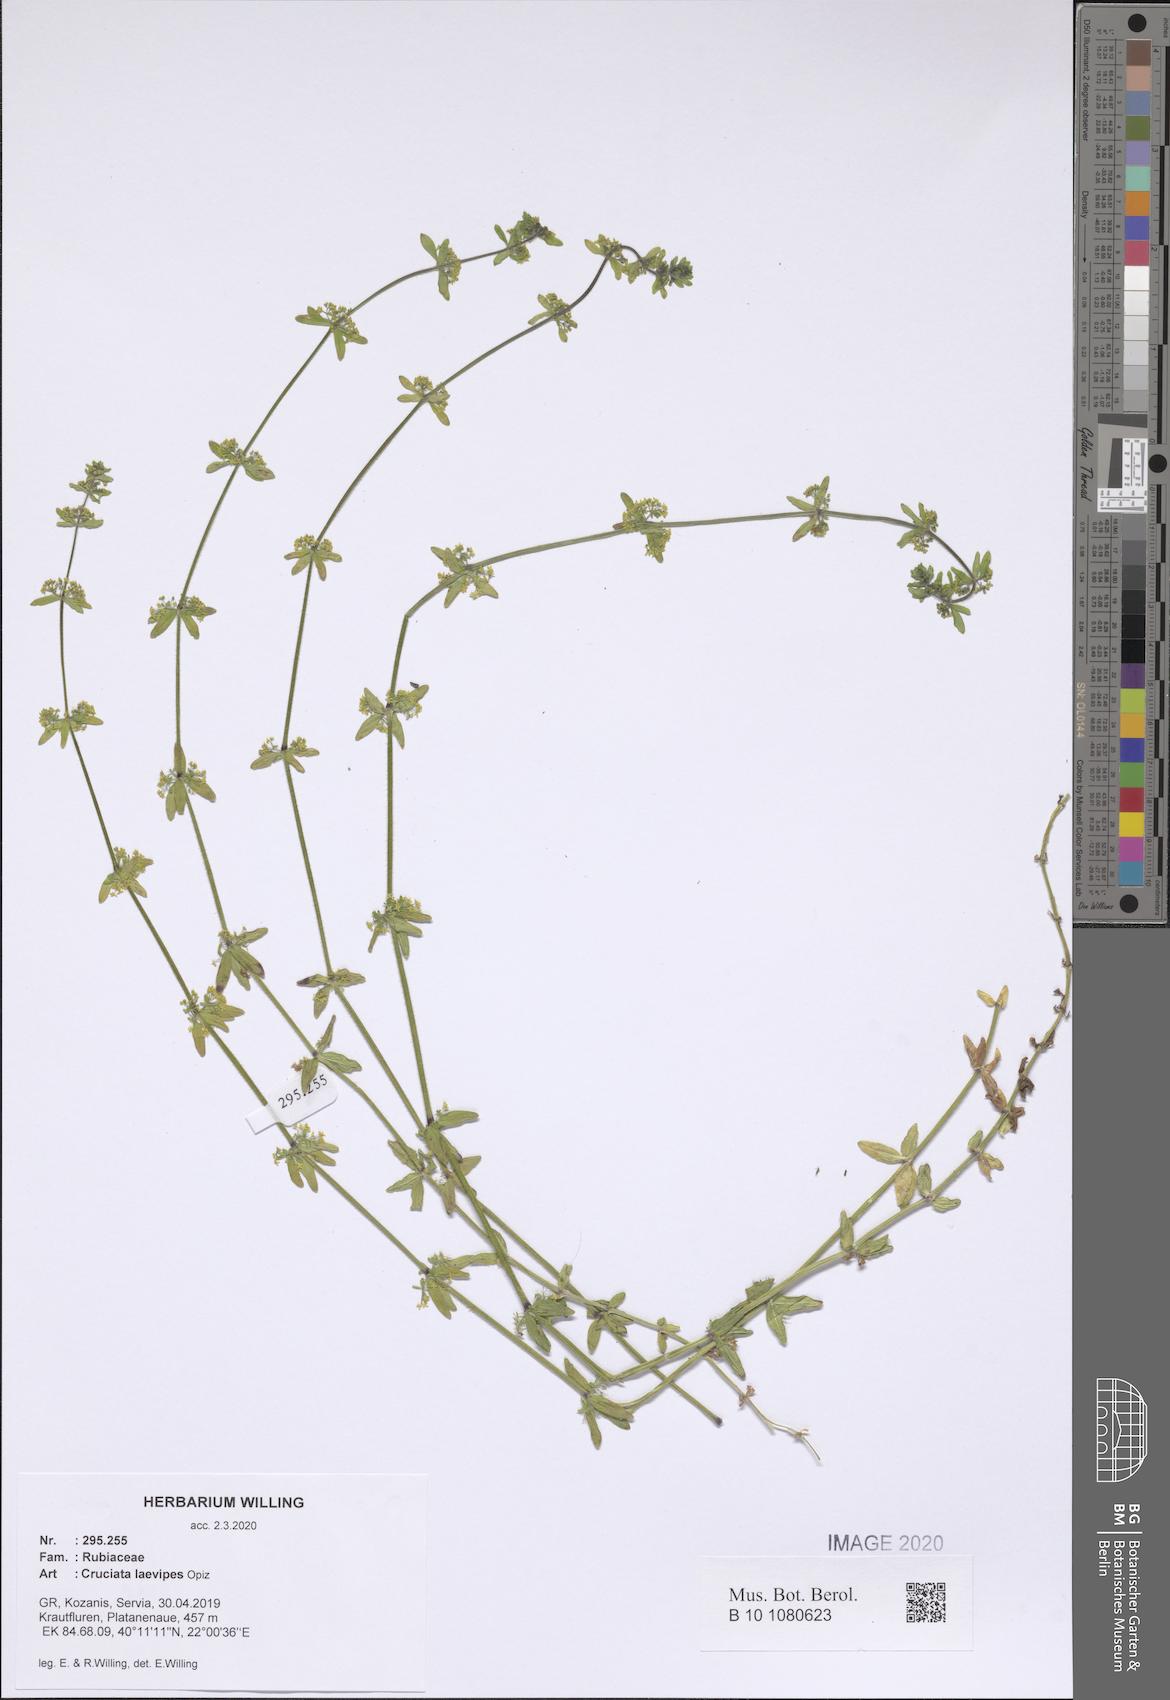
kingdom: Plantae
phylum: Tracheophyta
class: Magnoliopsida
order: Gentianales
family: Rubiaceae
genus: Cruciata
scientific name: Cruciata laevipes
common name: Crosswort
